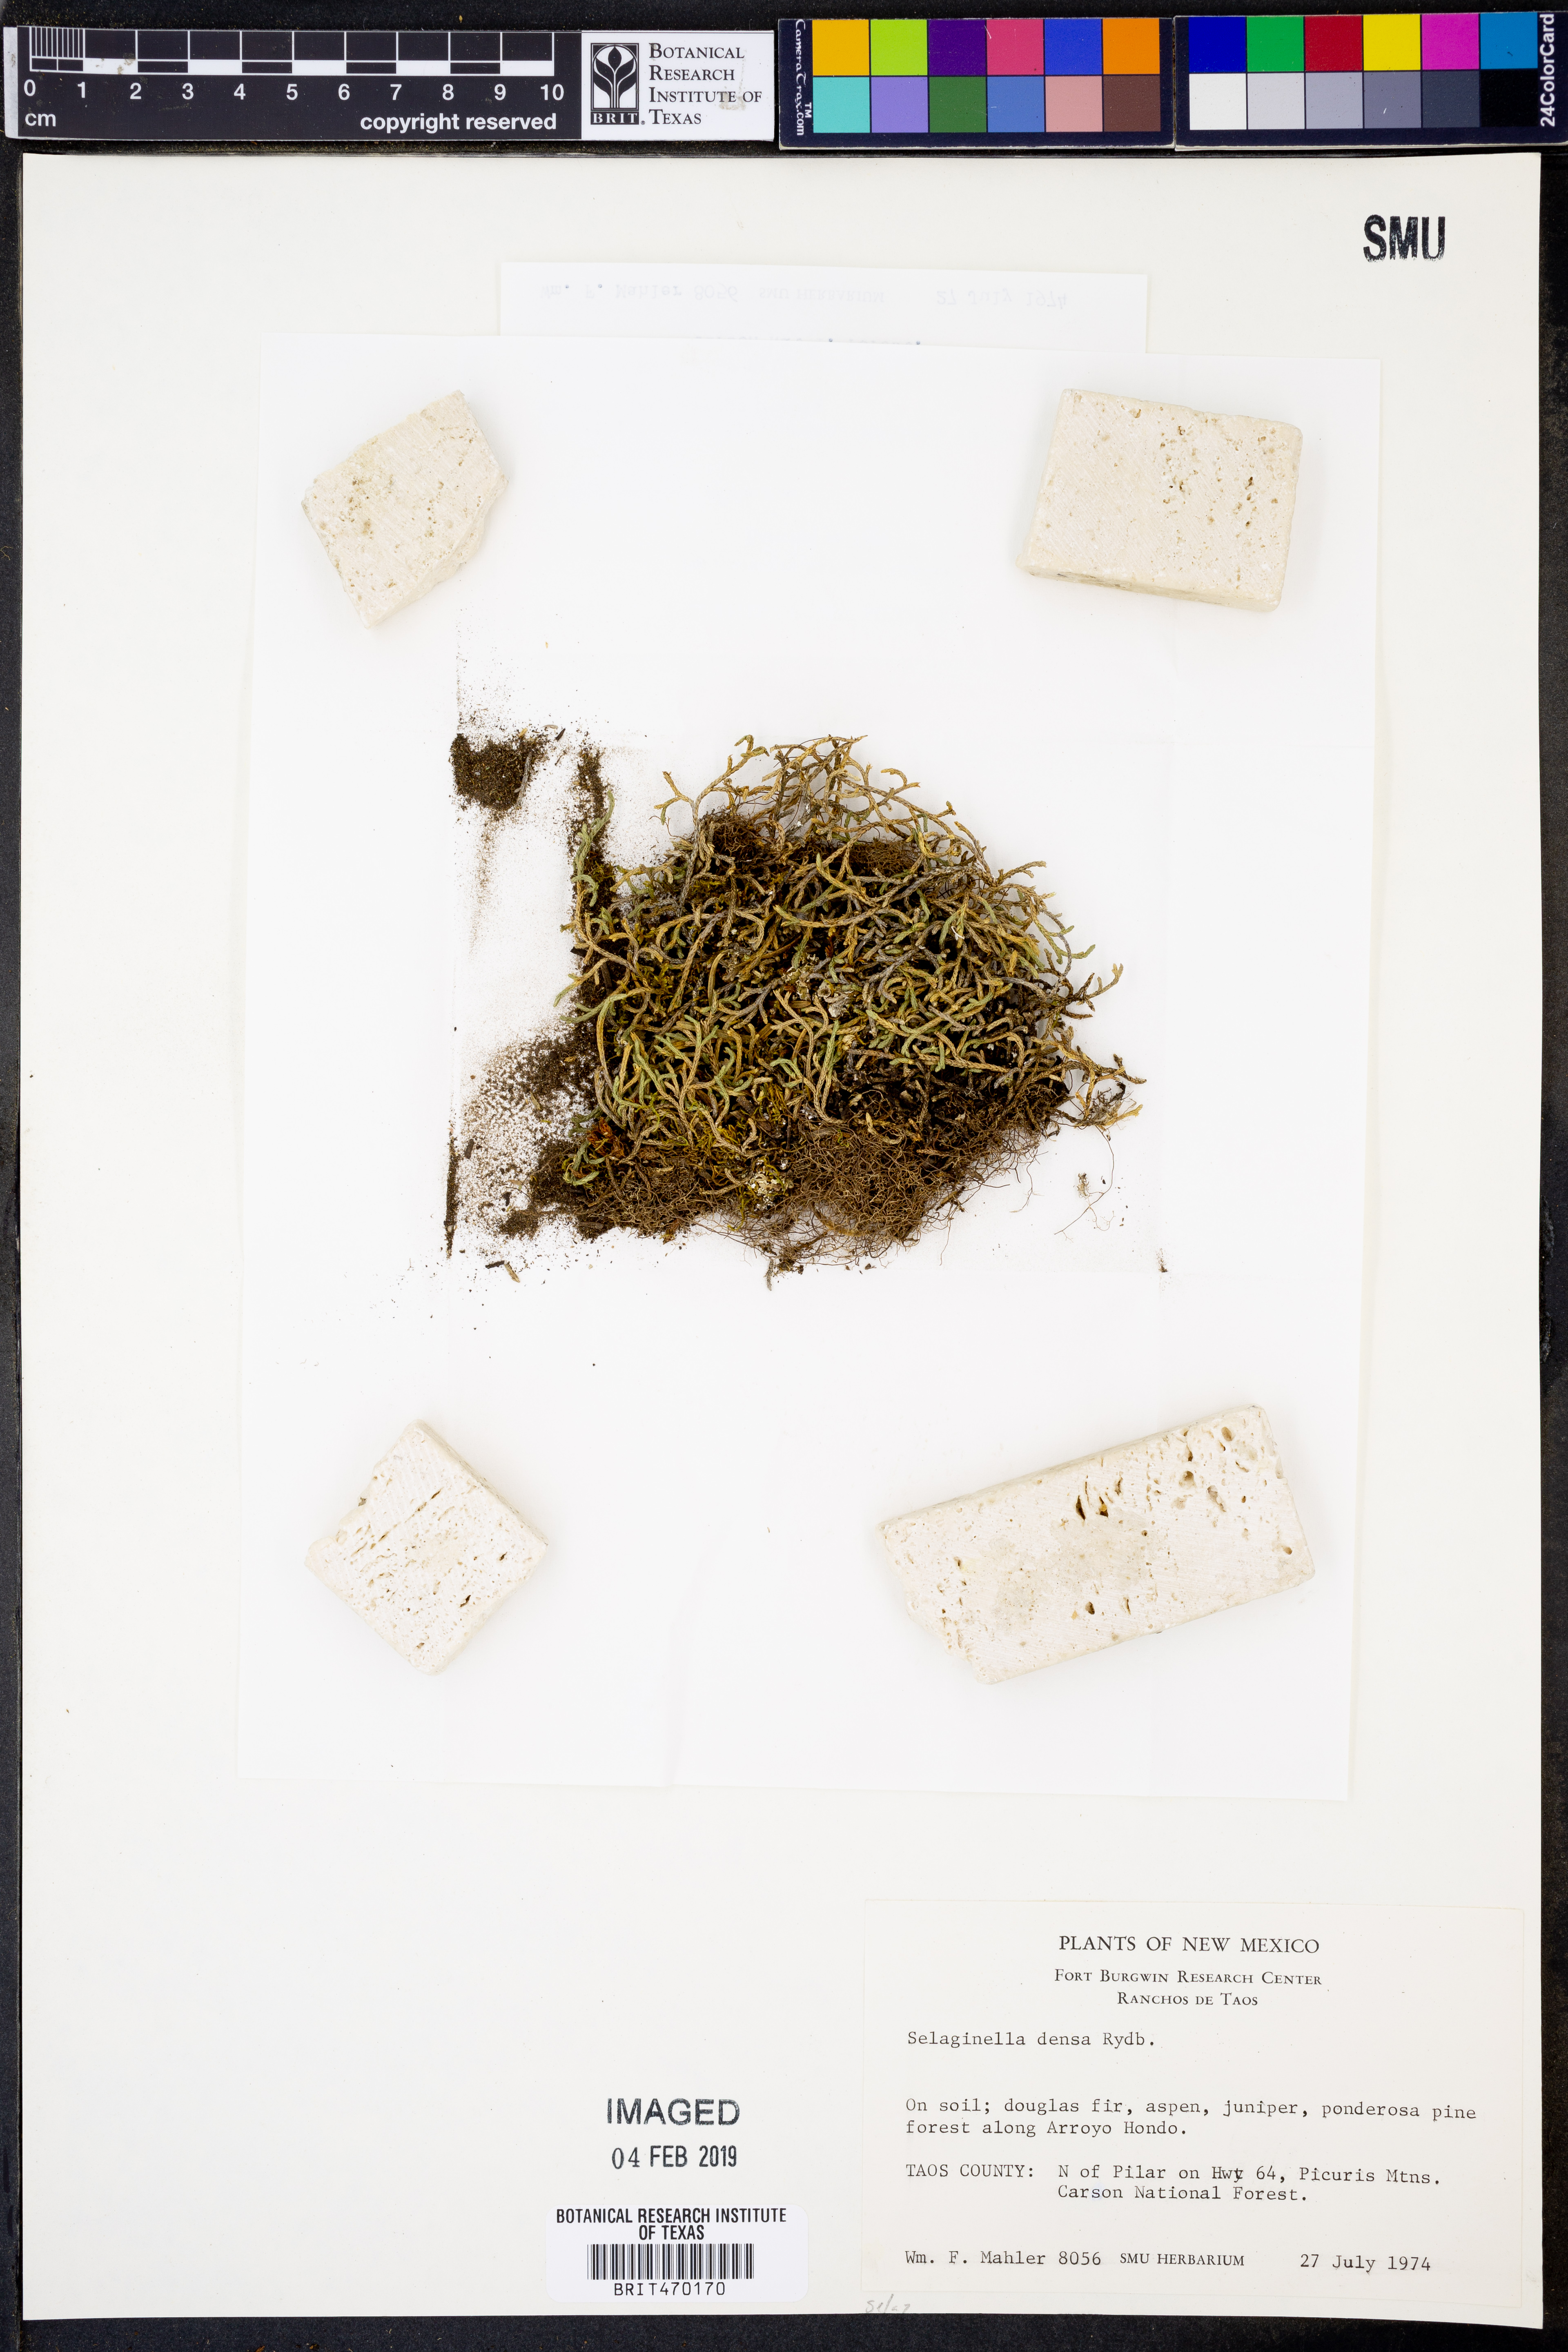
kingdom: Plantae
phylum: Tracheophyta
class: Lycopodiopsida
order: Selaginellales
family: Selaginellaceae
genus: Selaginella
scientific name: Selaginella densa
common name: Mountain spike-moss
